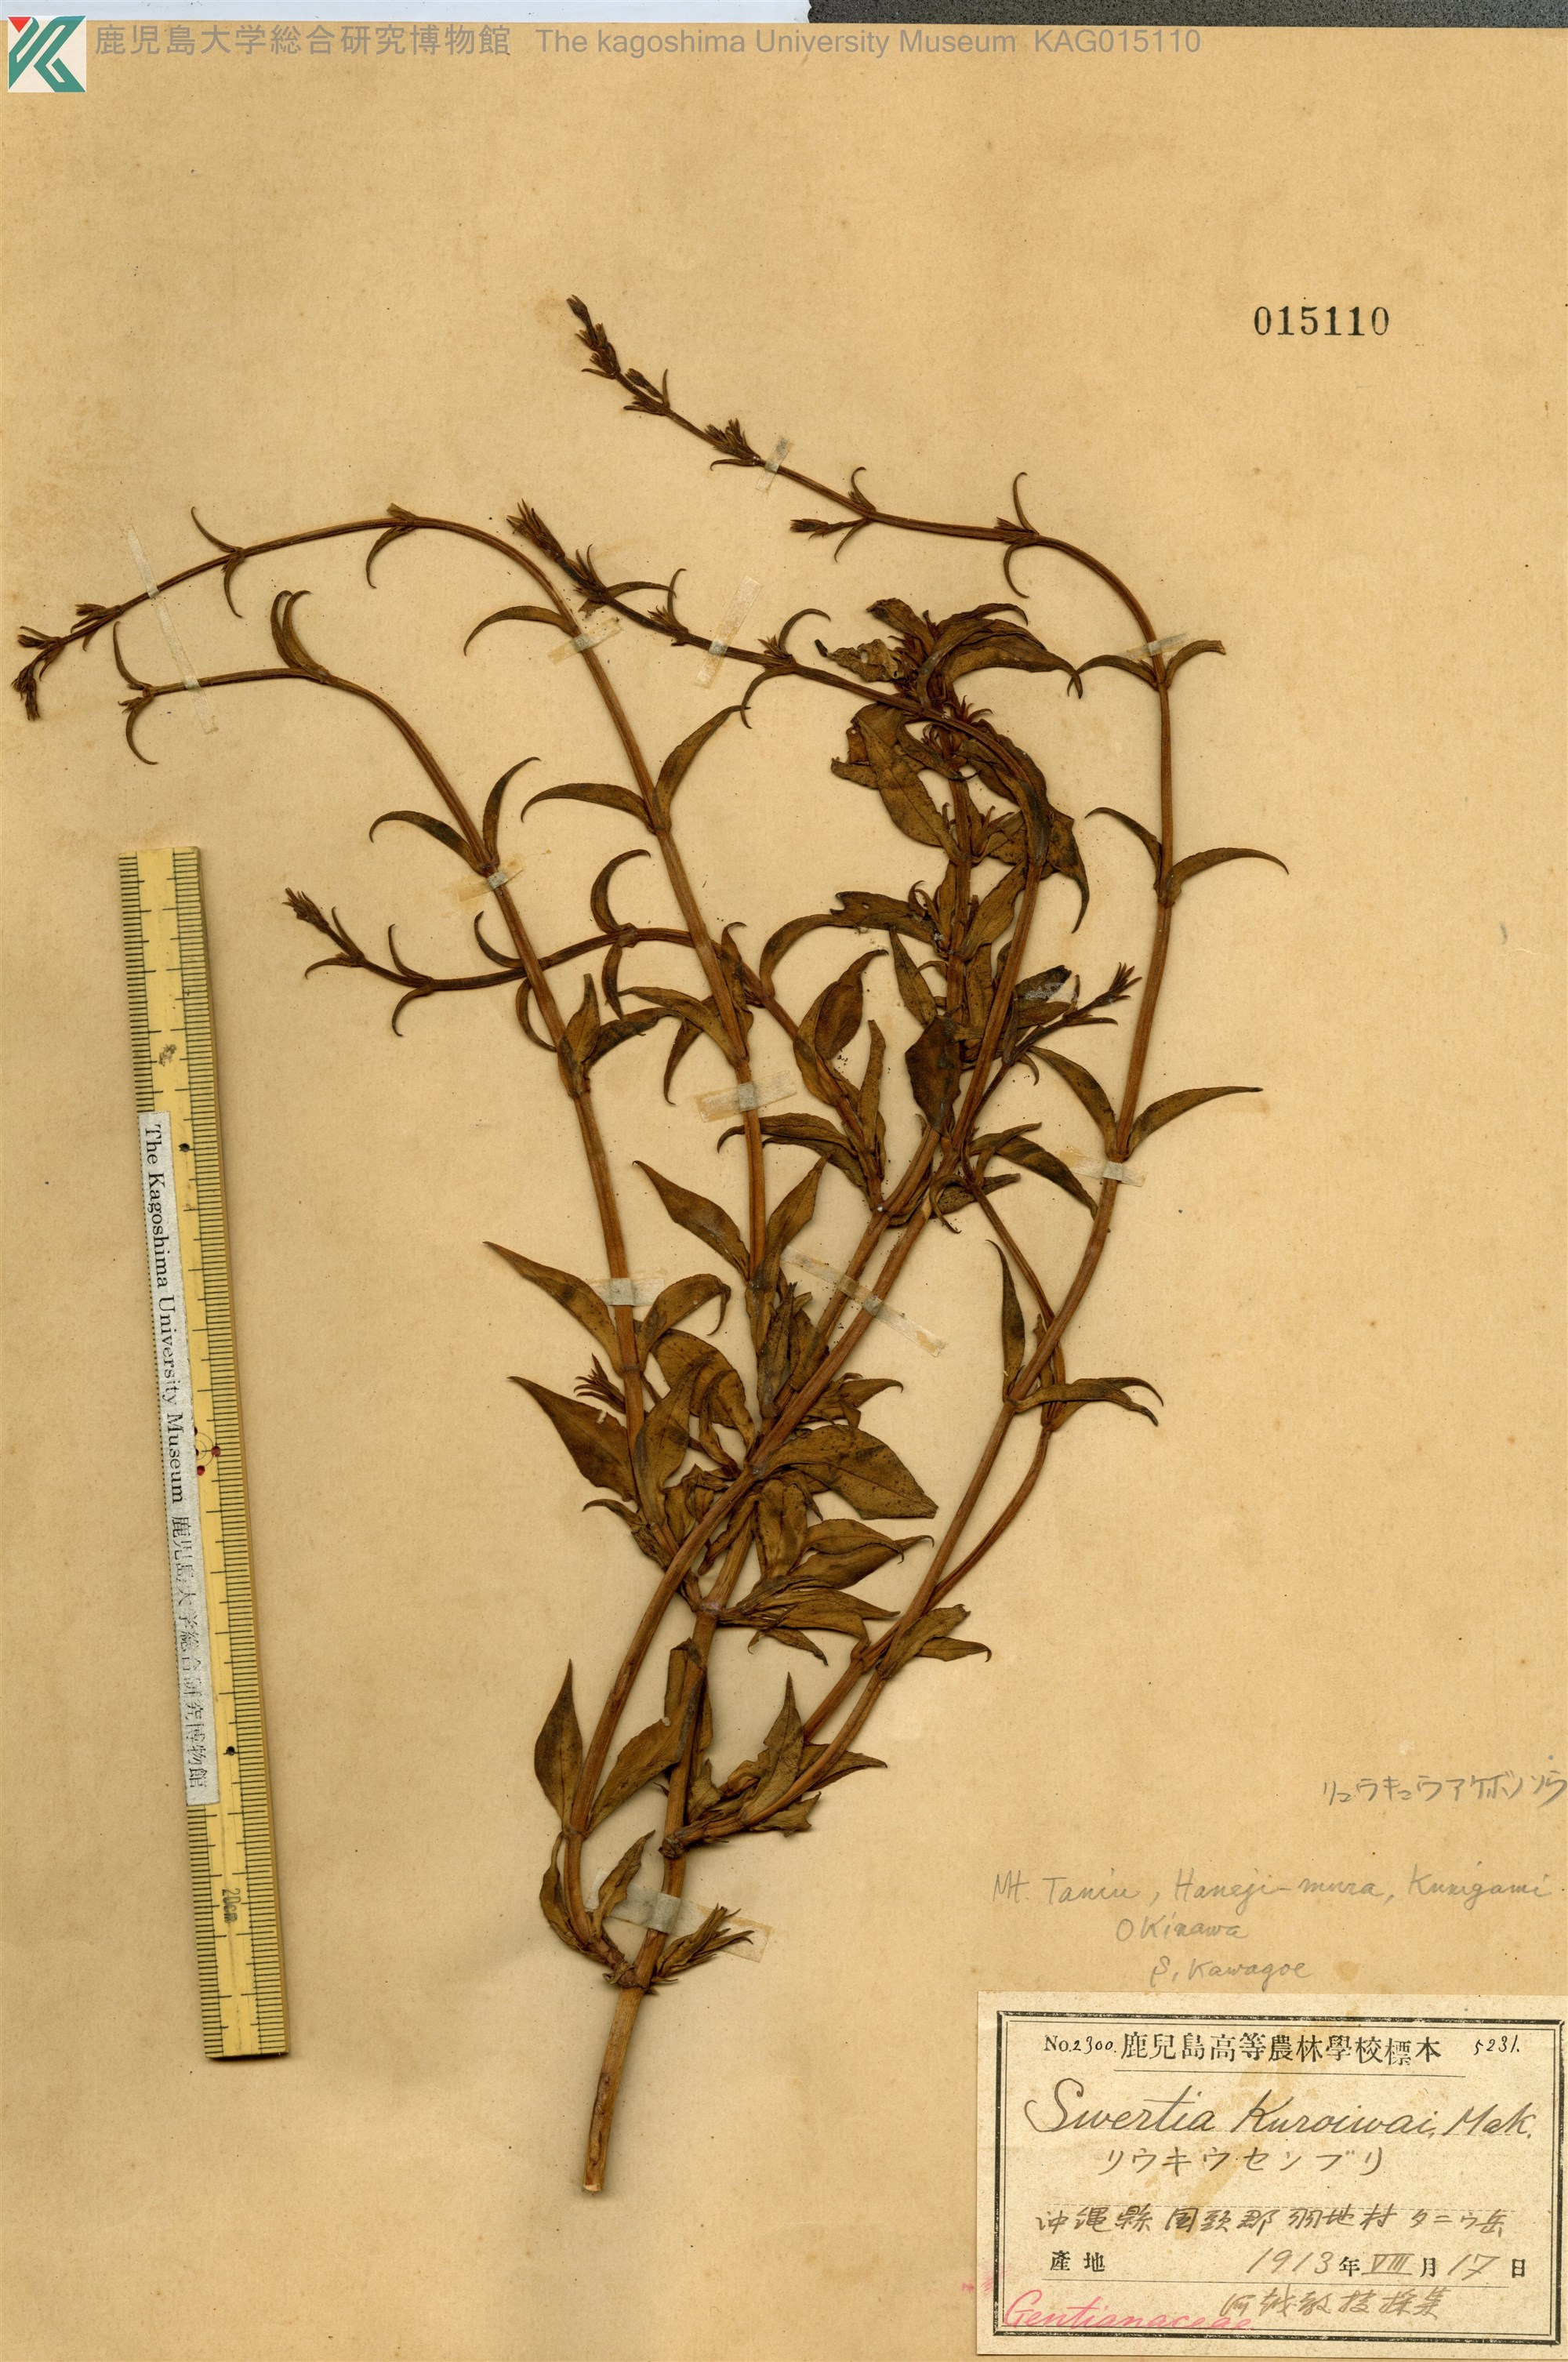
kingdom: Plantae
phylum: Tracheophyta
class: Magnoliopsida
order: Vitales
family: Vitaceae
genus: Vitis
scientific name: Vitis ficifolia
